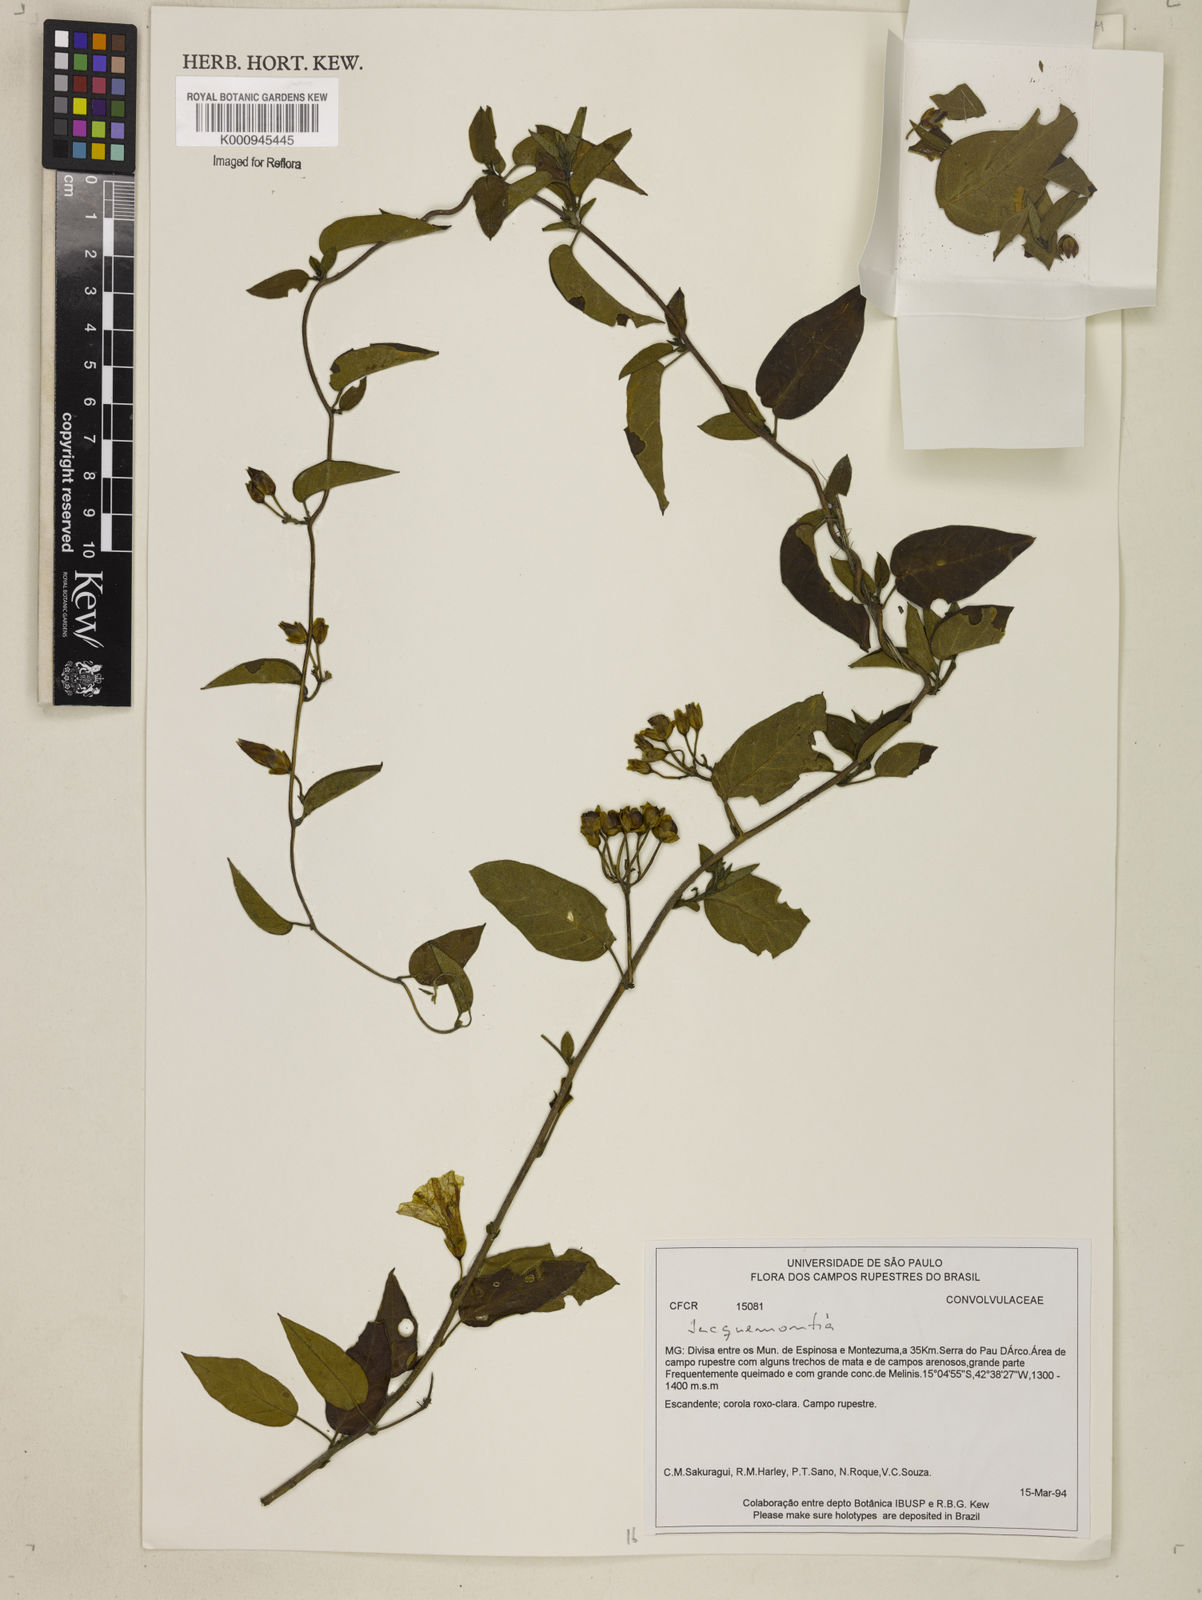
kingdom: Plantae
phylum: Tracheophyta
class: Magnoliopsida
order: Solanales
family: Convolvulaceae
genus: Jacquemontia
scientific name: Jacquemontia
